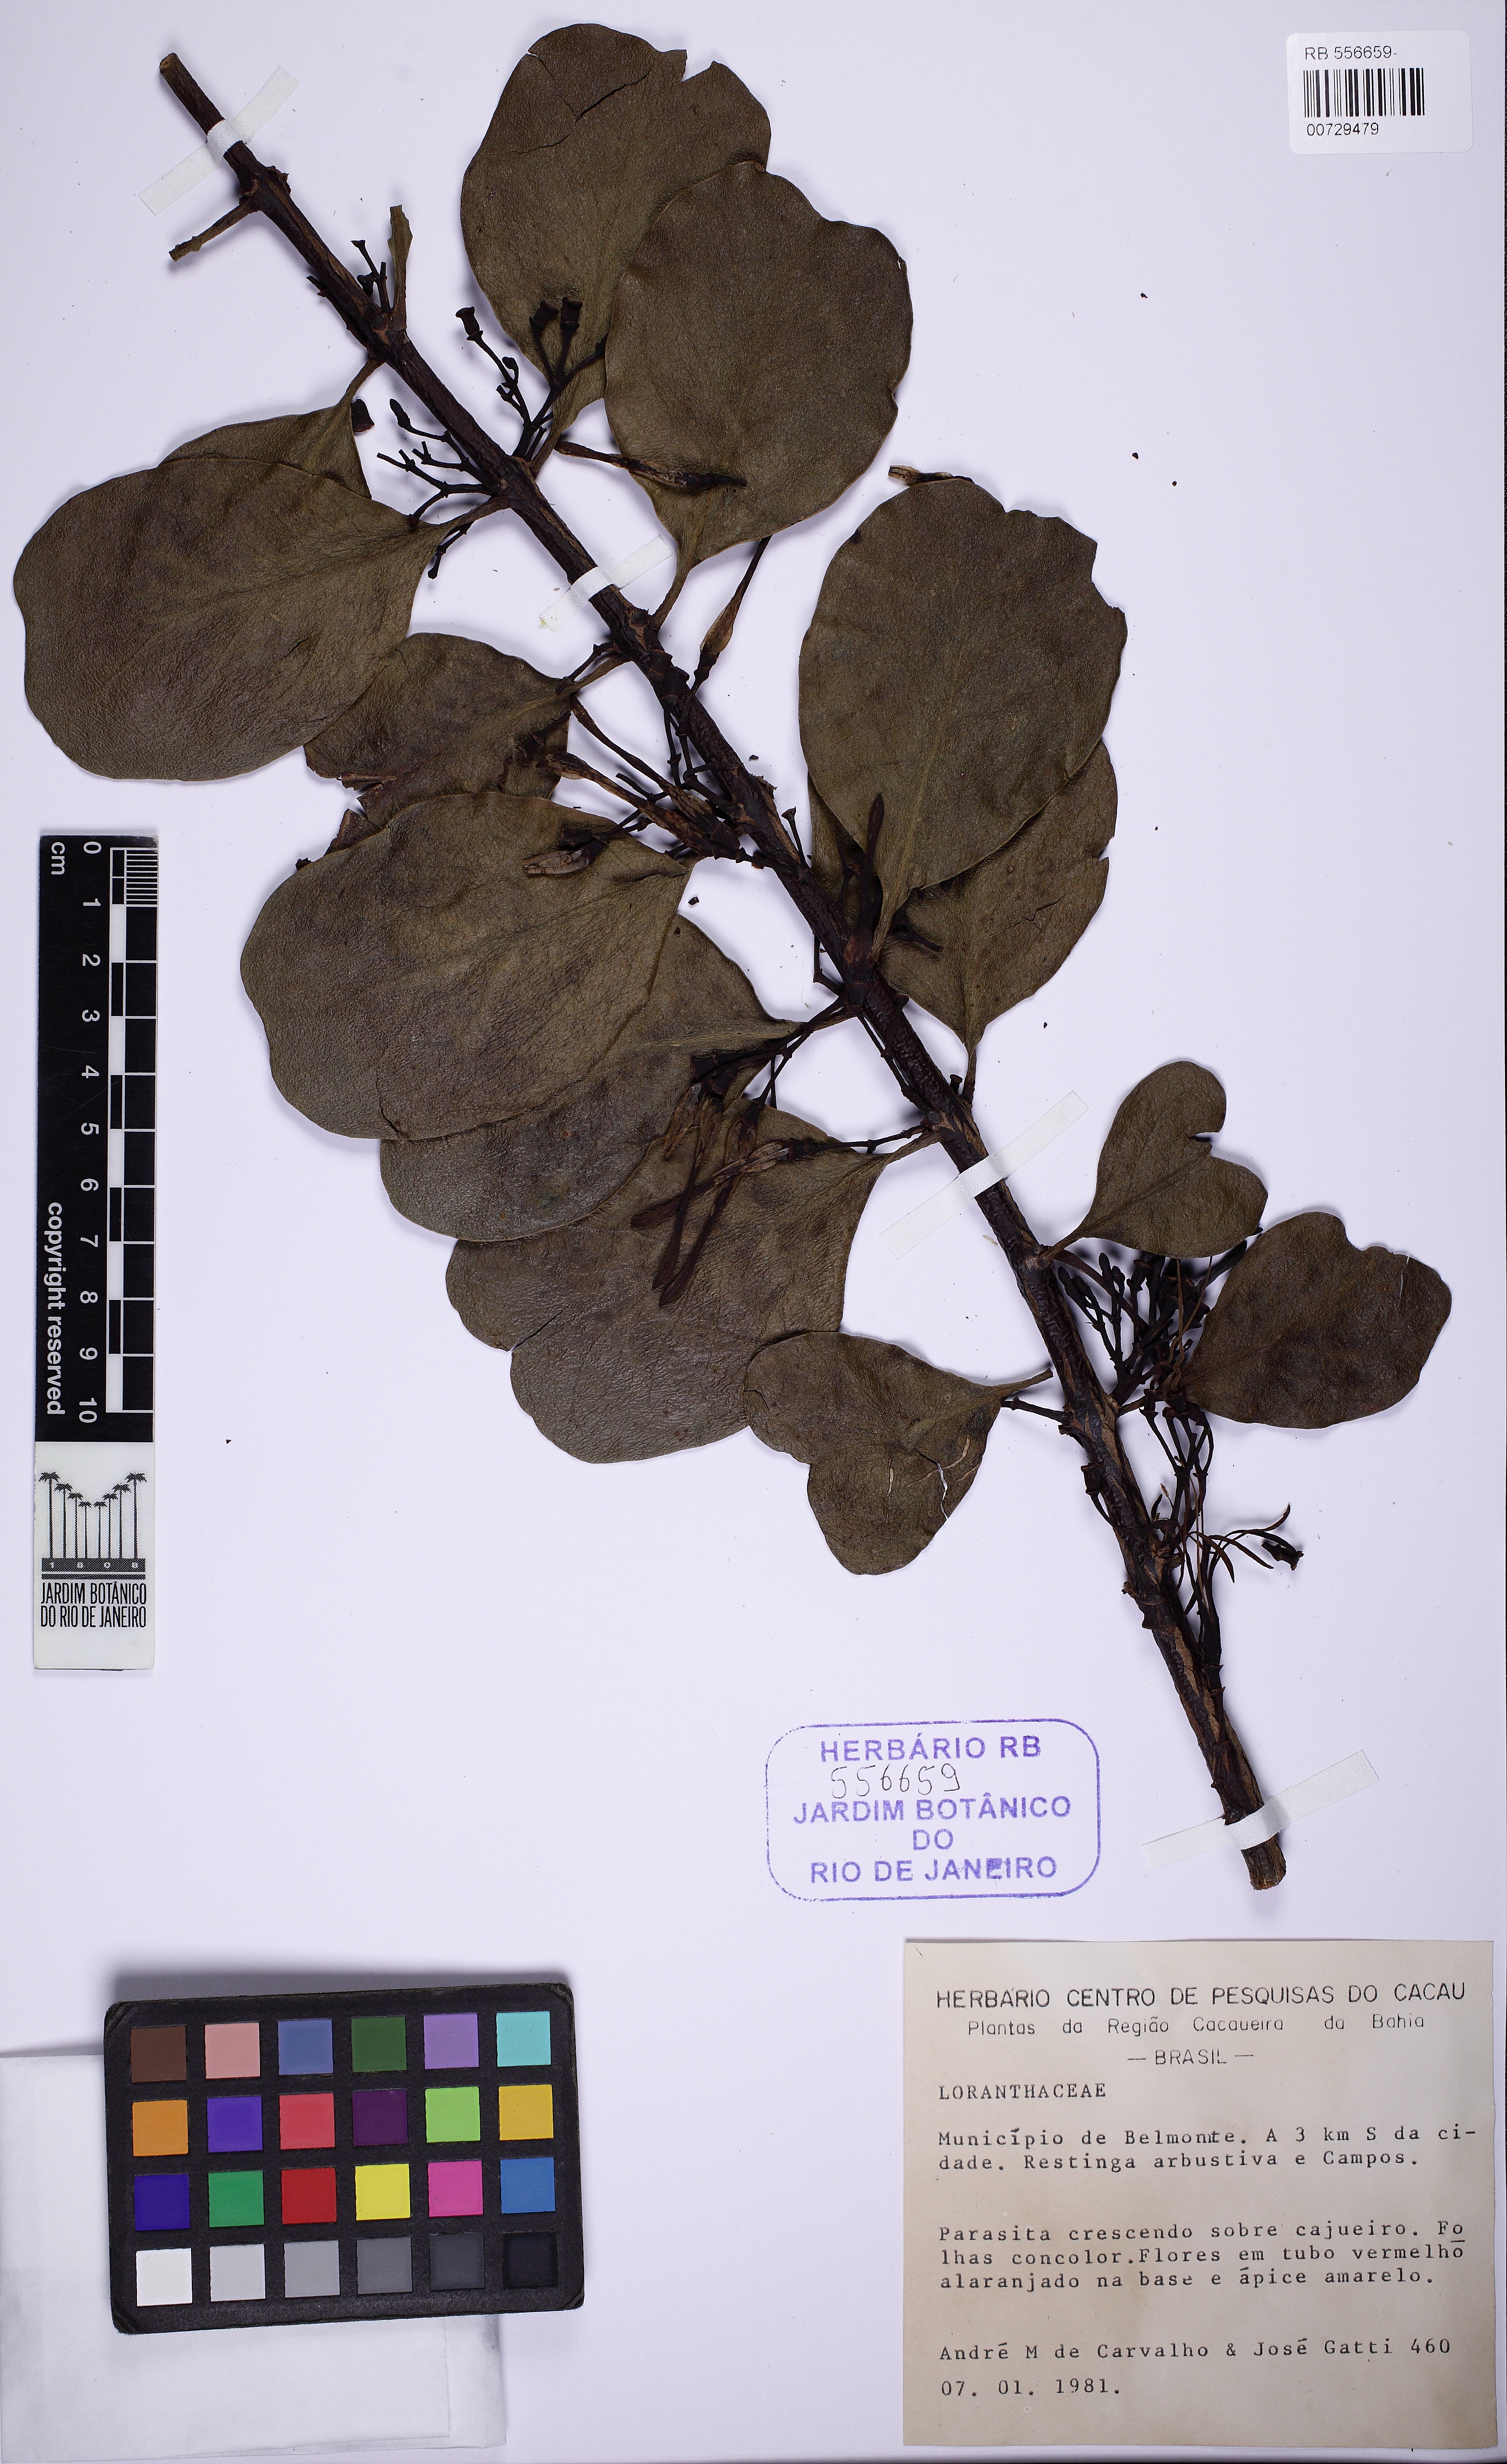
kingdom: Plantae
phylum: Tracheophyta
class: Magnoliopsida
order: Santalales
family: Loranthaceae
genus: Psittacanthus
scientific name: Psittacanthus dichroos
